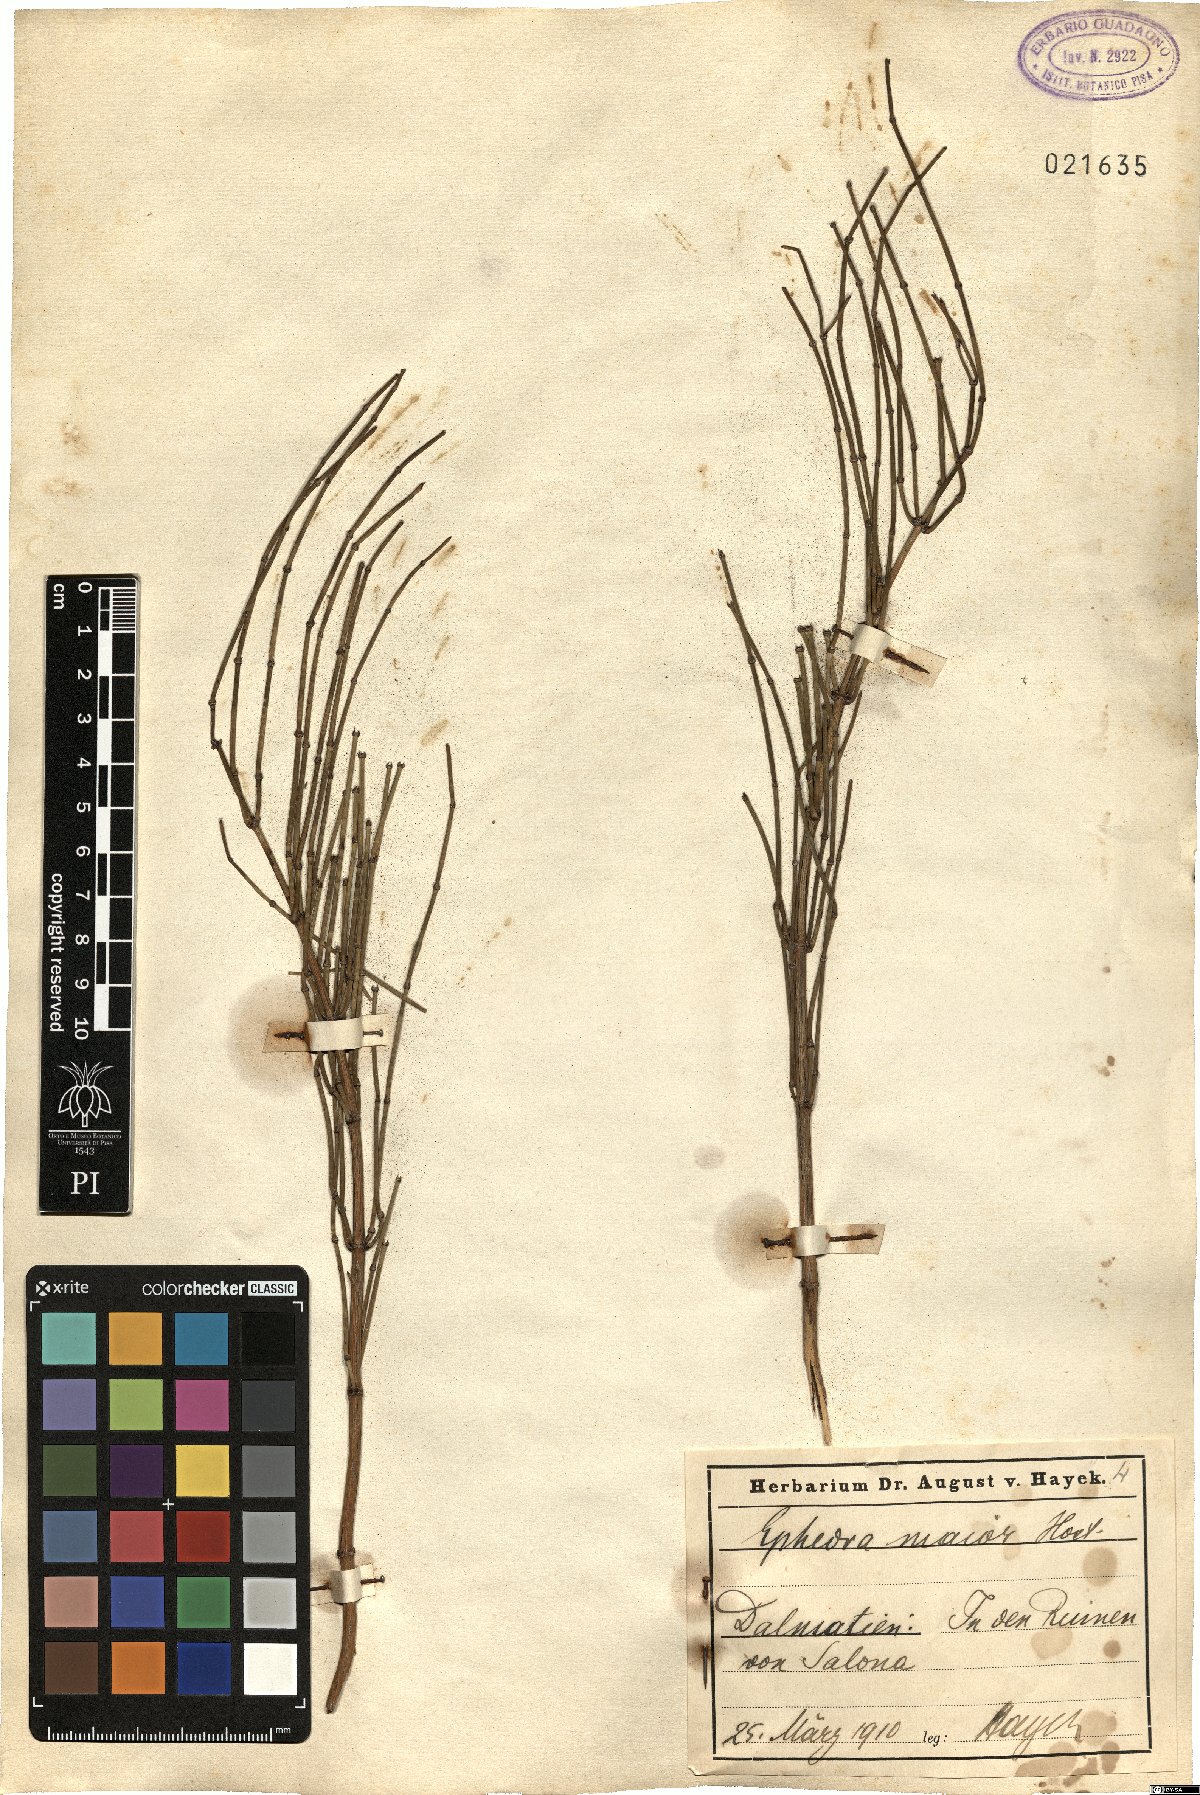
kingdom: Plantae
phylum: Tracheophyta
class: Gnetopsida
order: Ephedrales
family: Ephedraceae
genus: Ephedra
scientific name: Ephedra foeminea
